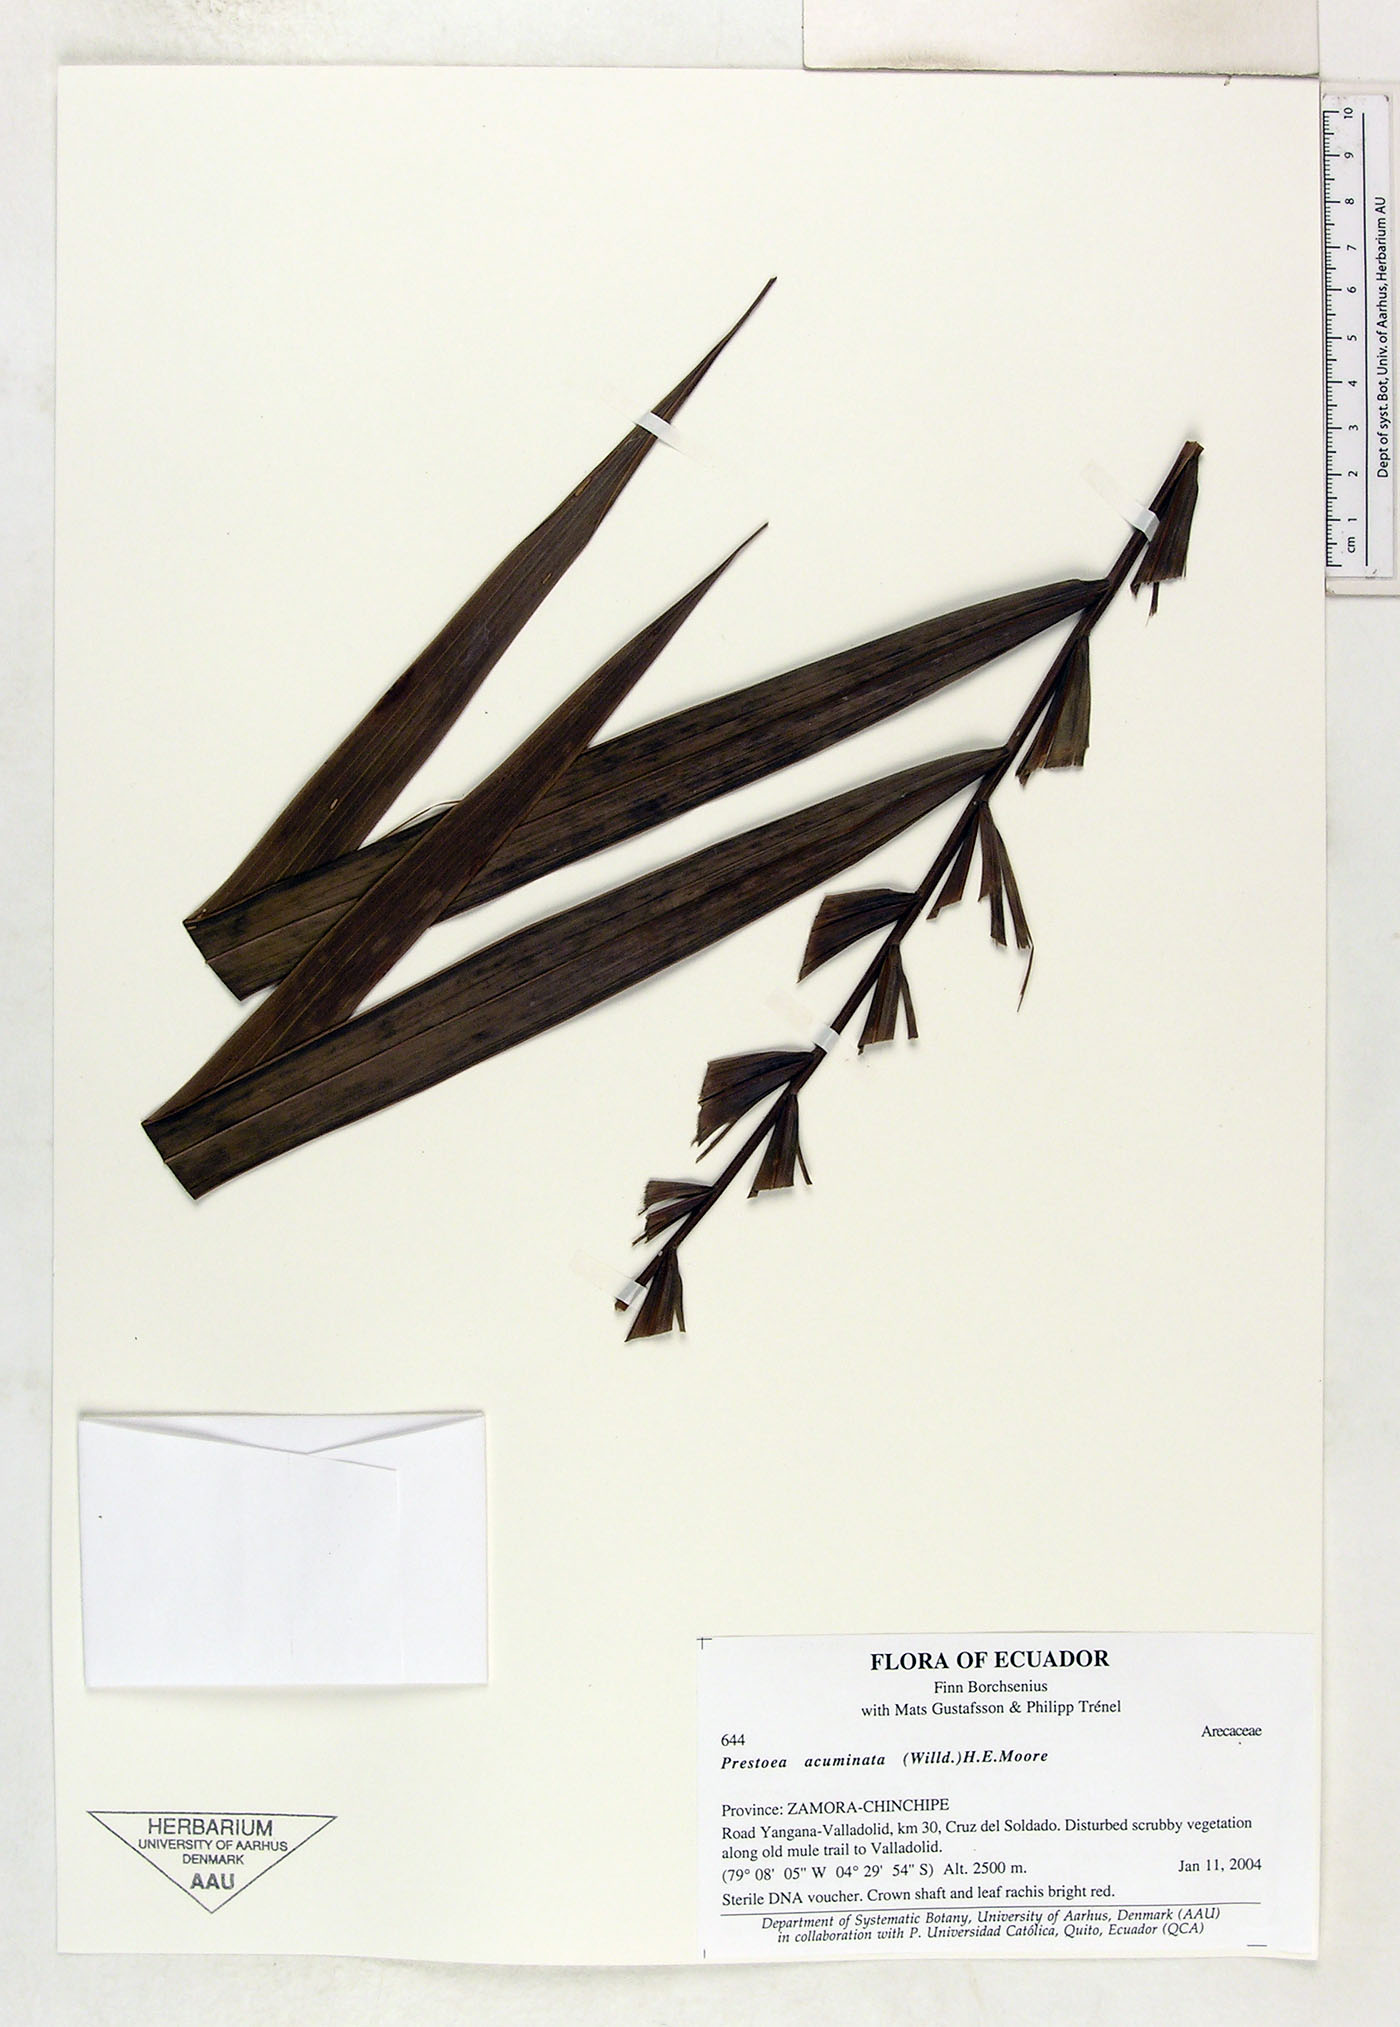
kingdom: Plantae
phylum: Tracheophyta
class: Liliopsida
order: Arecales
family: Arecaceae
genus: Prestoea
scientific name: Prestoea acuminata
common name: Sierran palm
